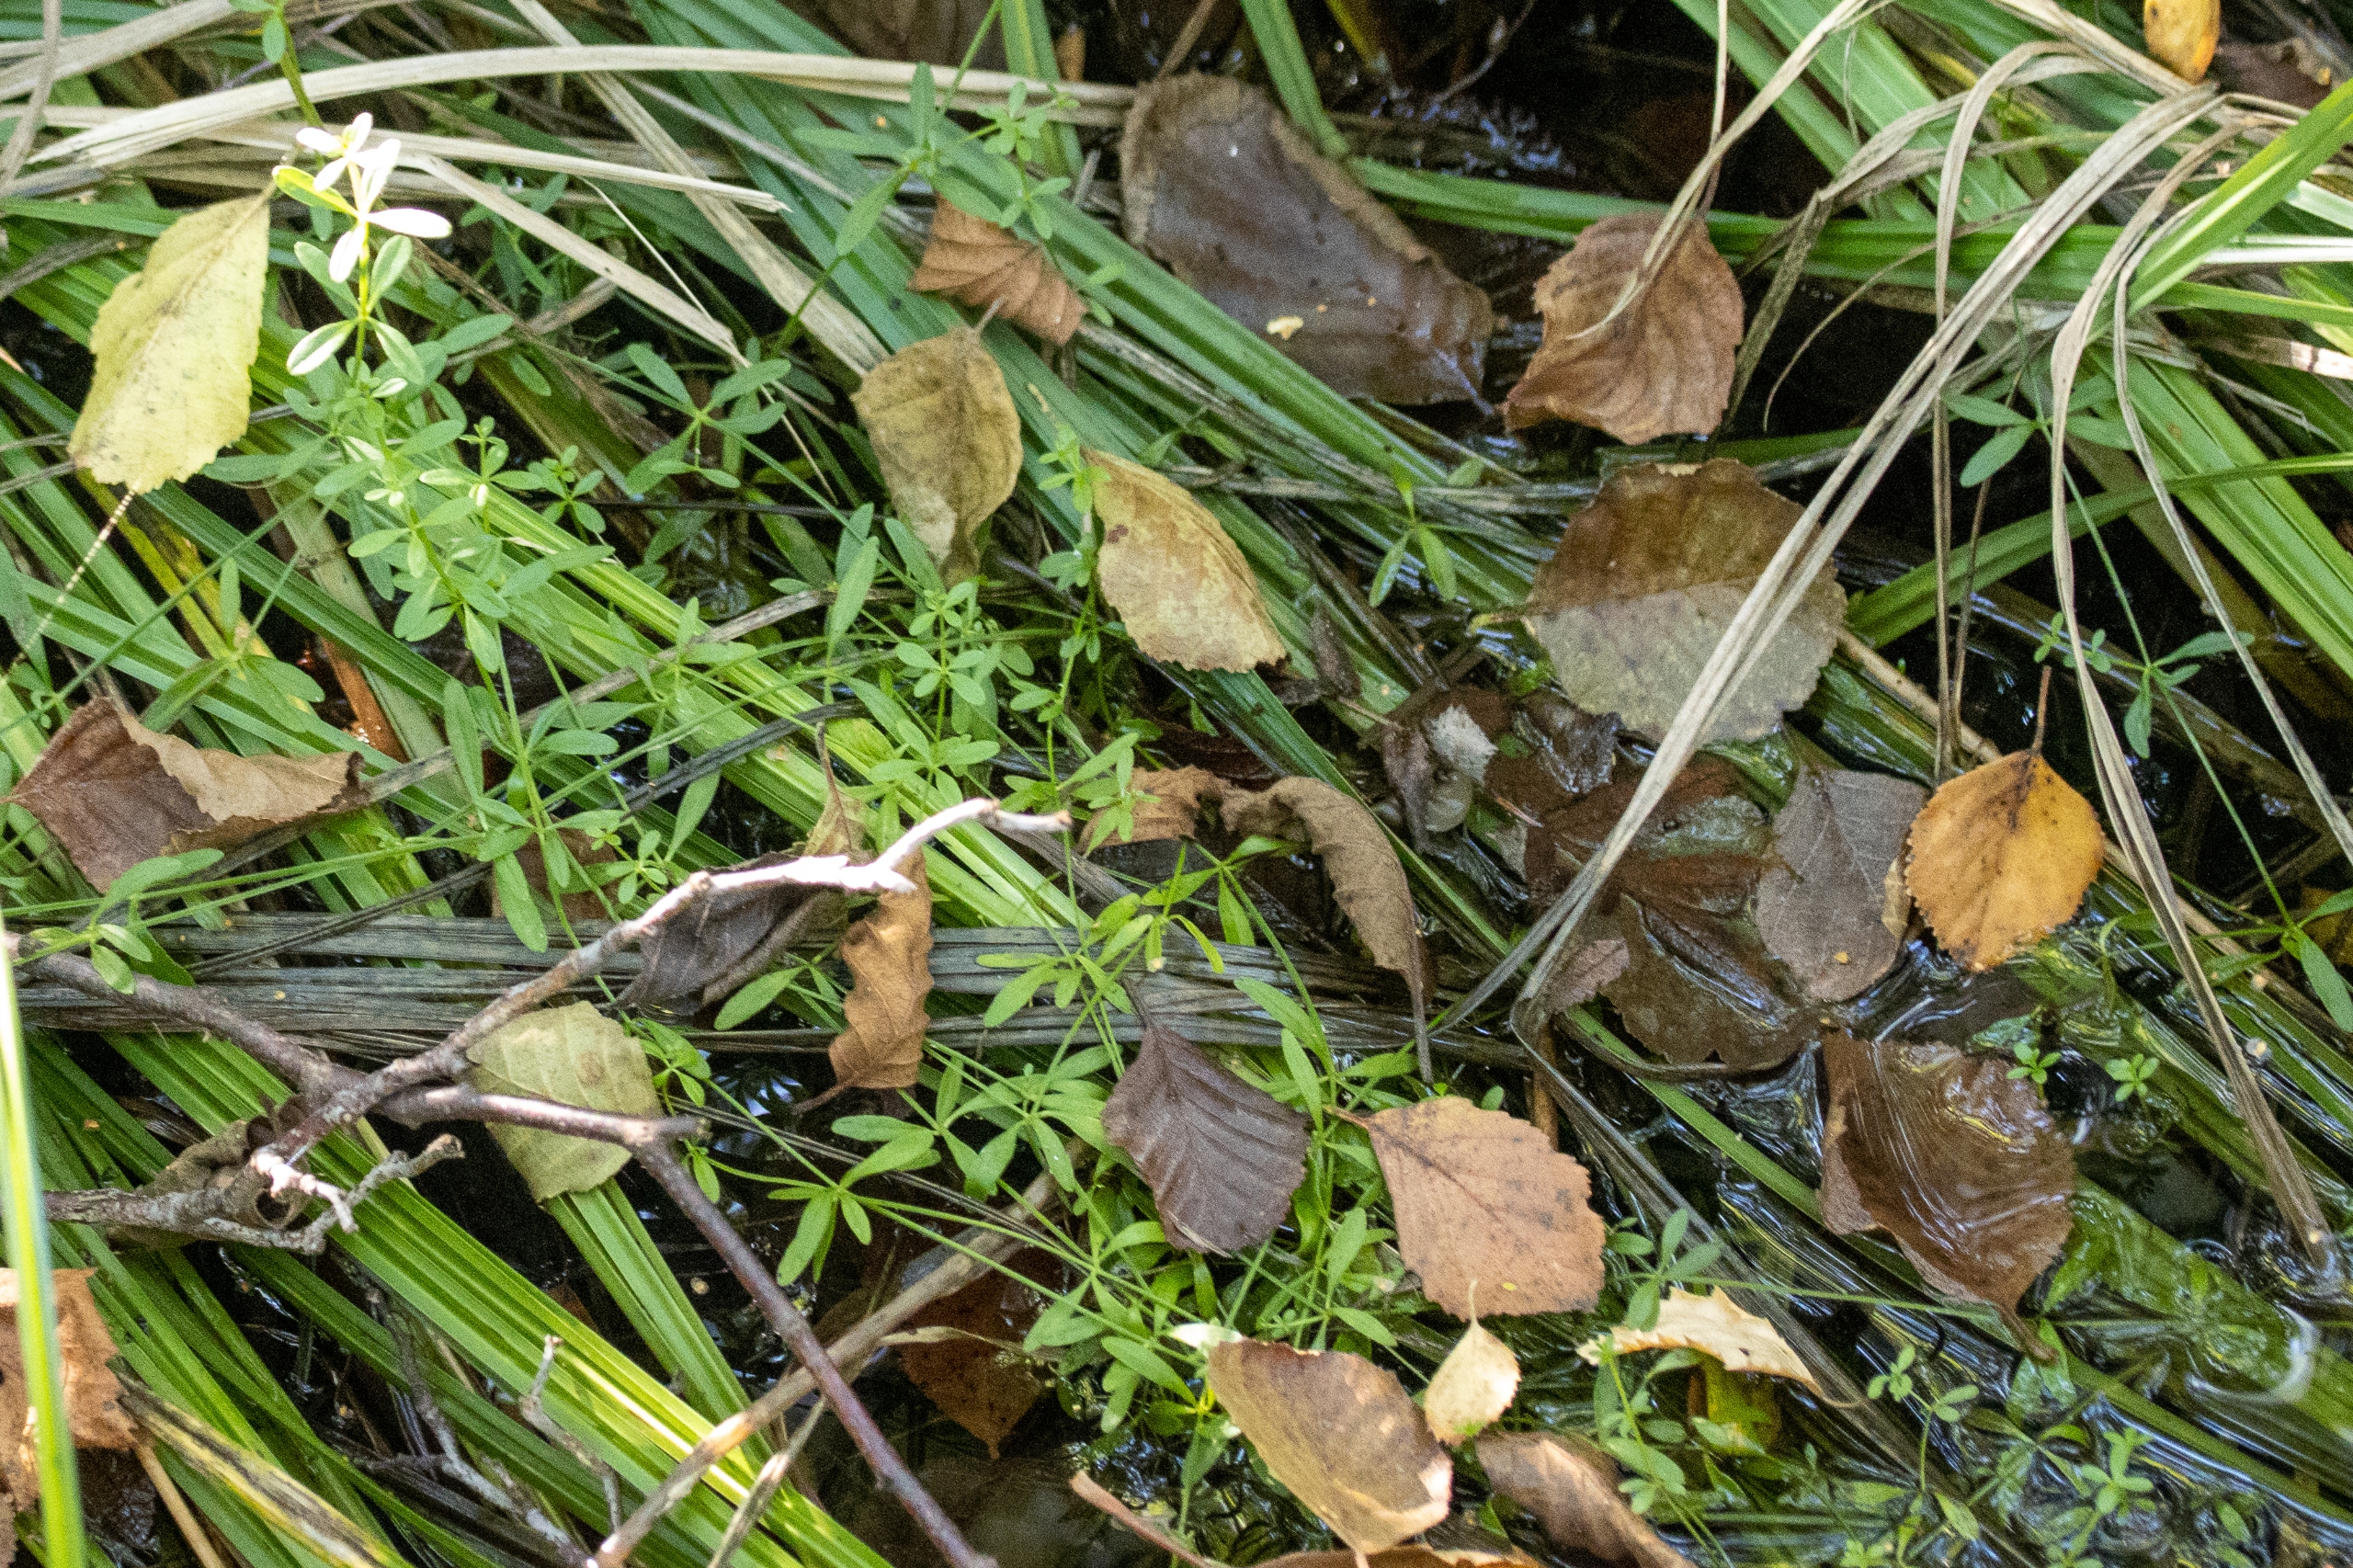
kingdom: Plantae
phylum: Tracheophyta
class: Magnoliopsida
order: Gentianales
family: Rubiaceae
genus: Galium
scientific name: Galium palustre
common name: Kær-snerre
